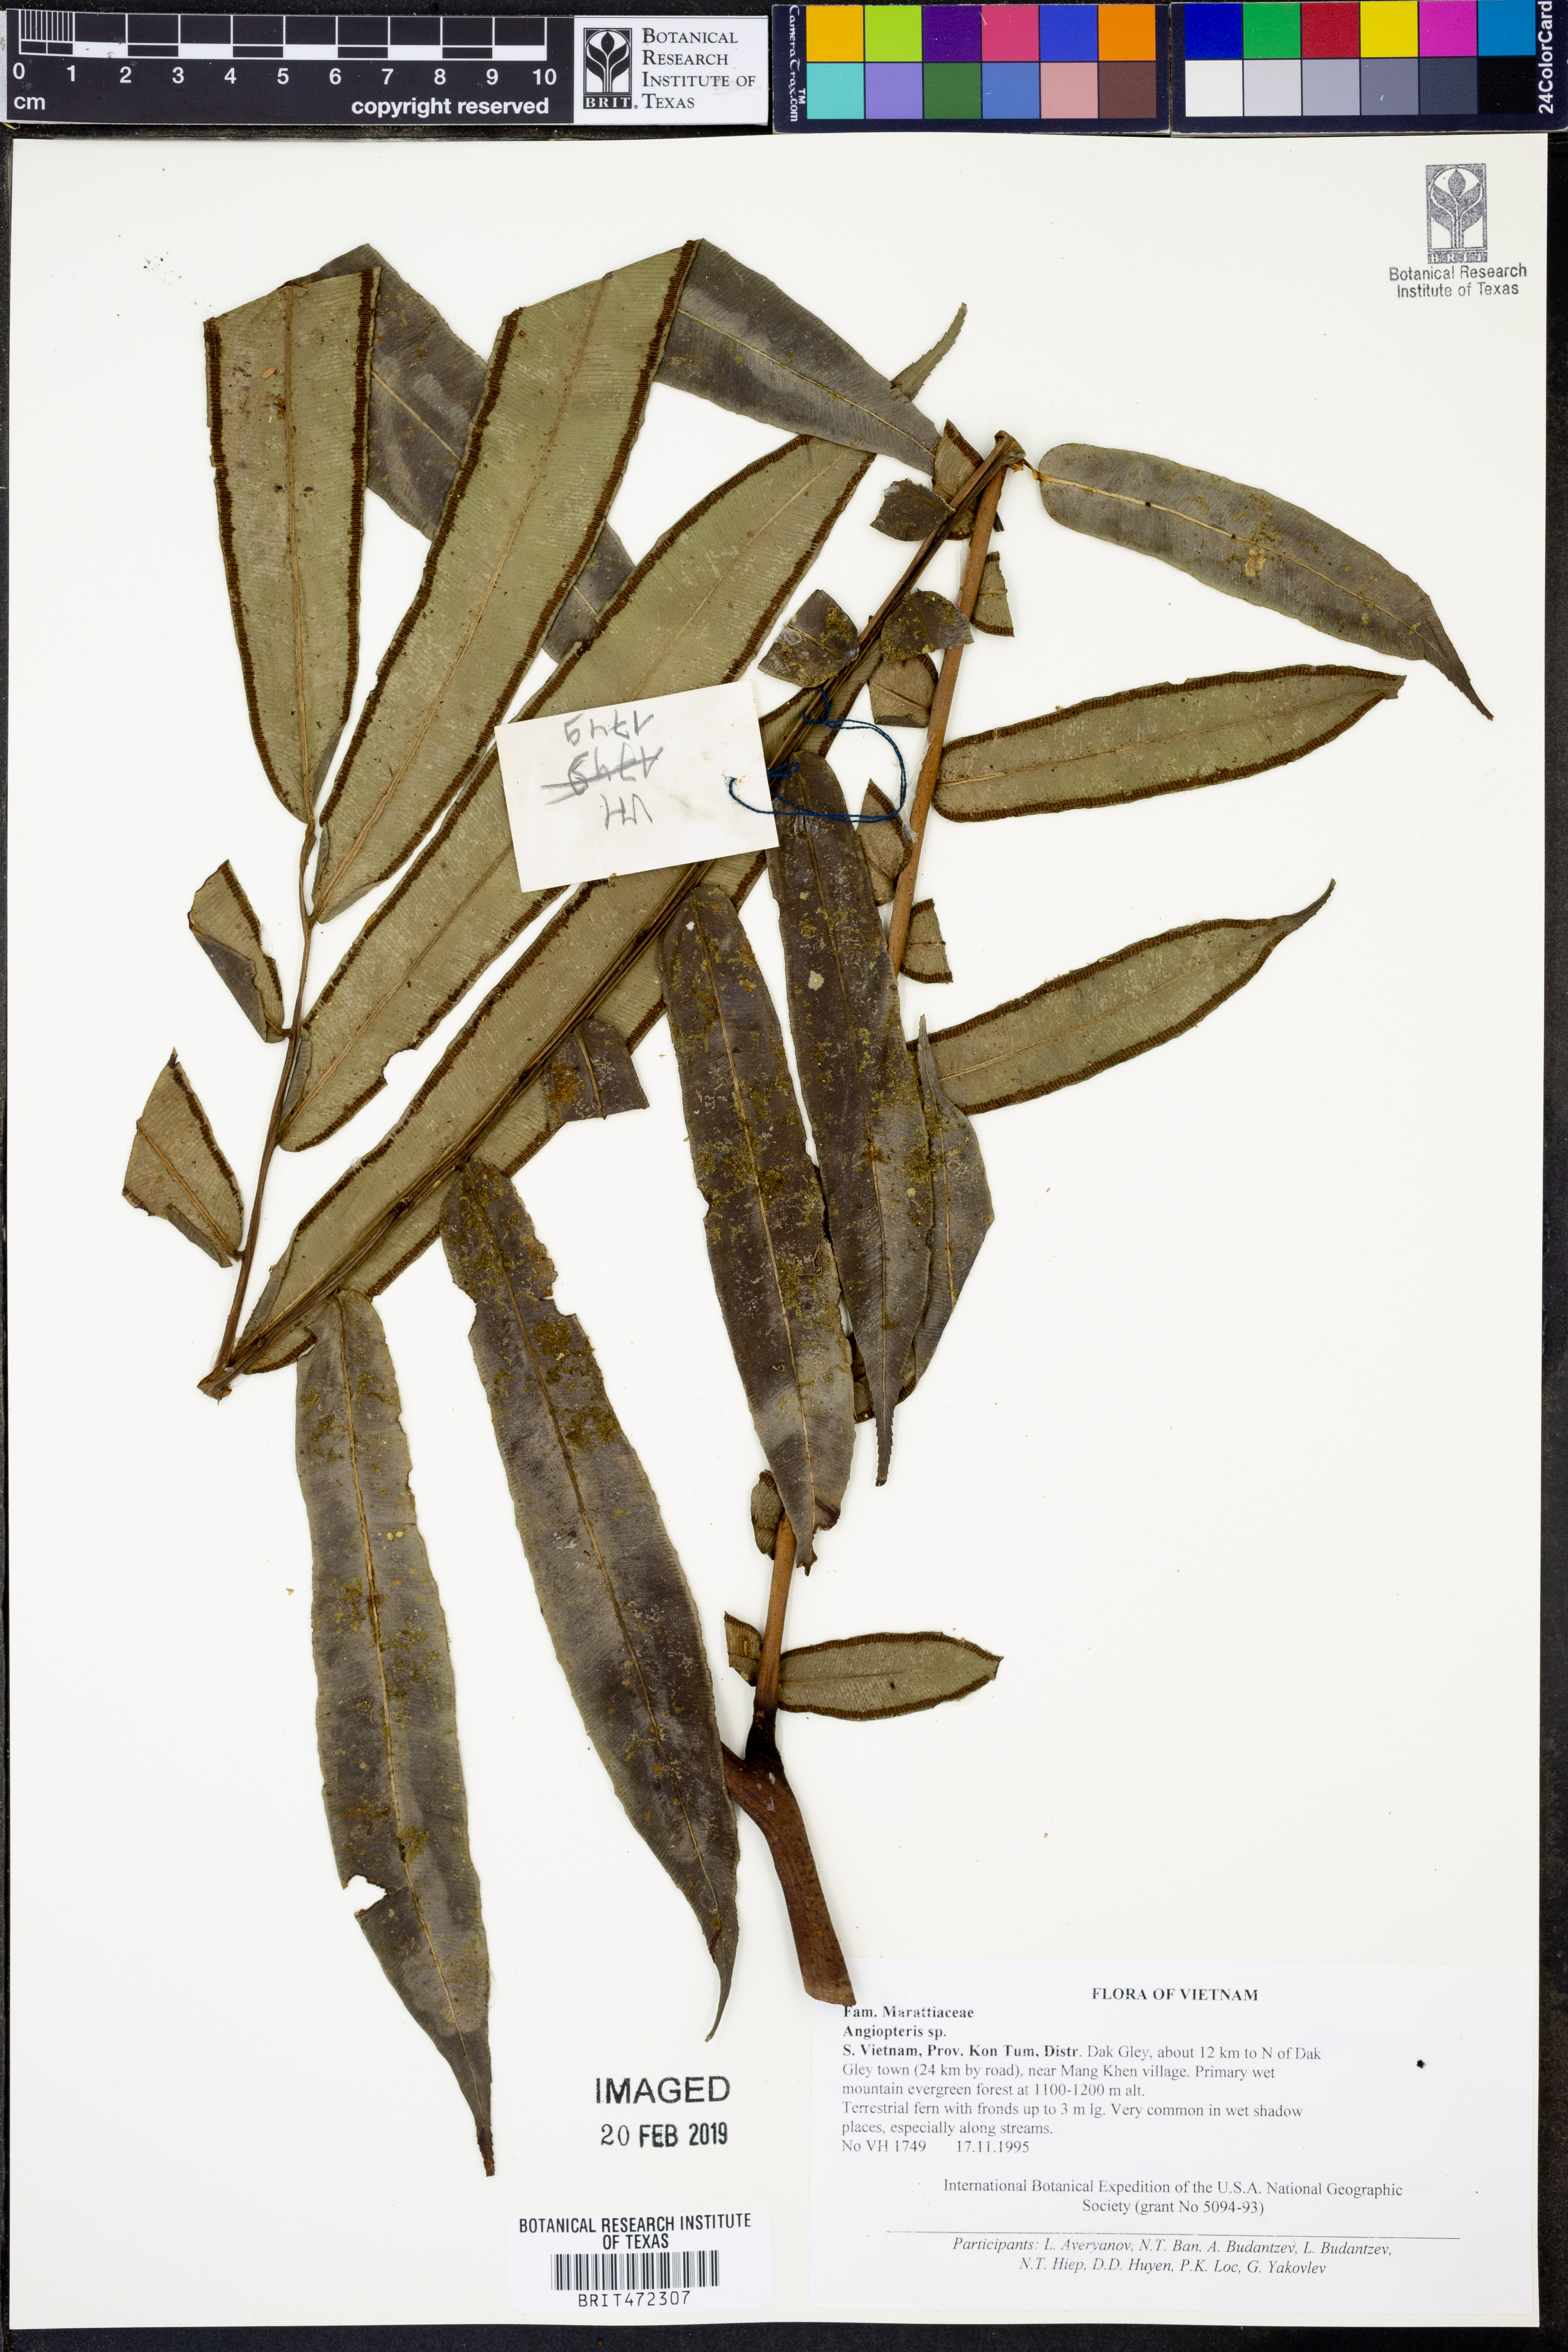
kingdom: Plantae
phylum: Tracheophyta
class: Polypodiopsida
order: Marattiales
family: Marattiaceae
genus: Angiopteris
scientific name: Angiopteris
